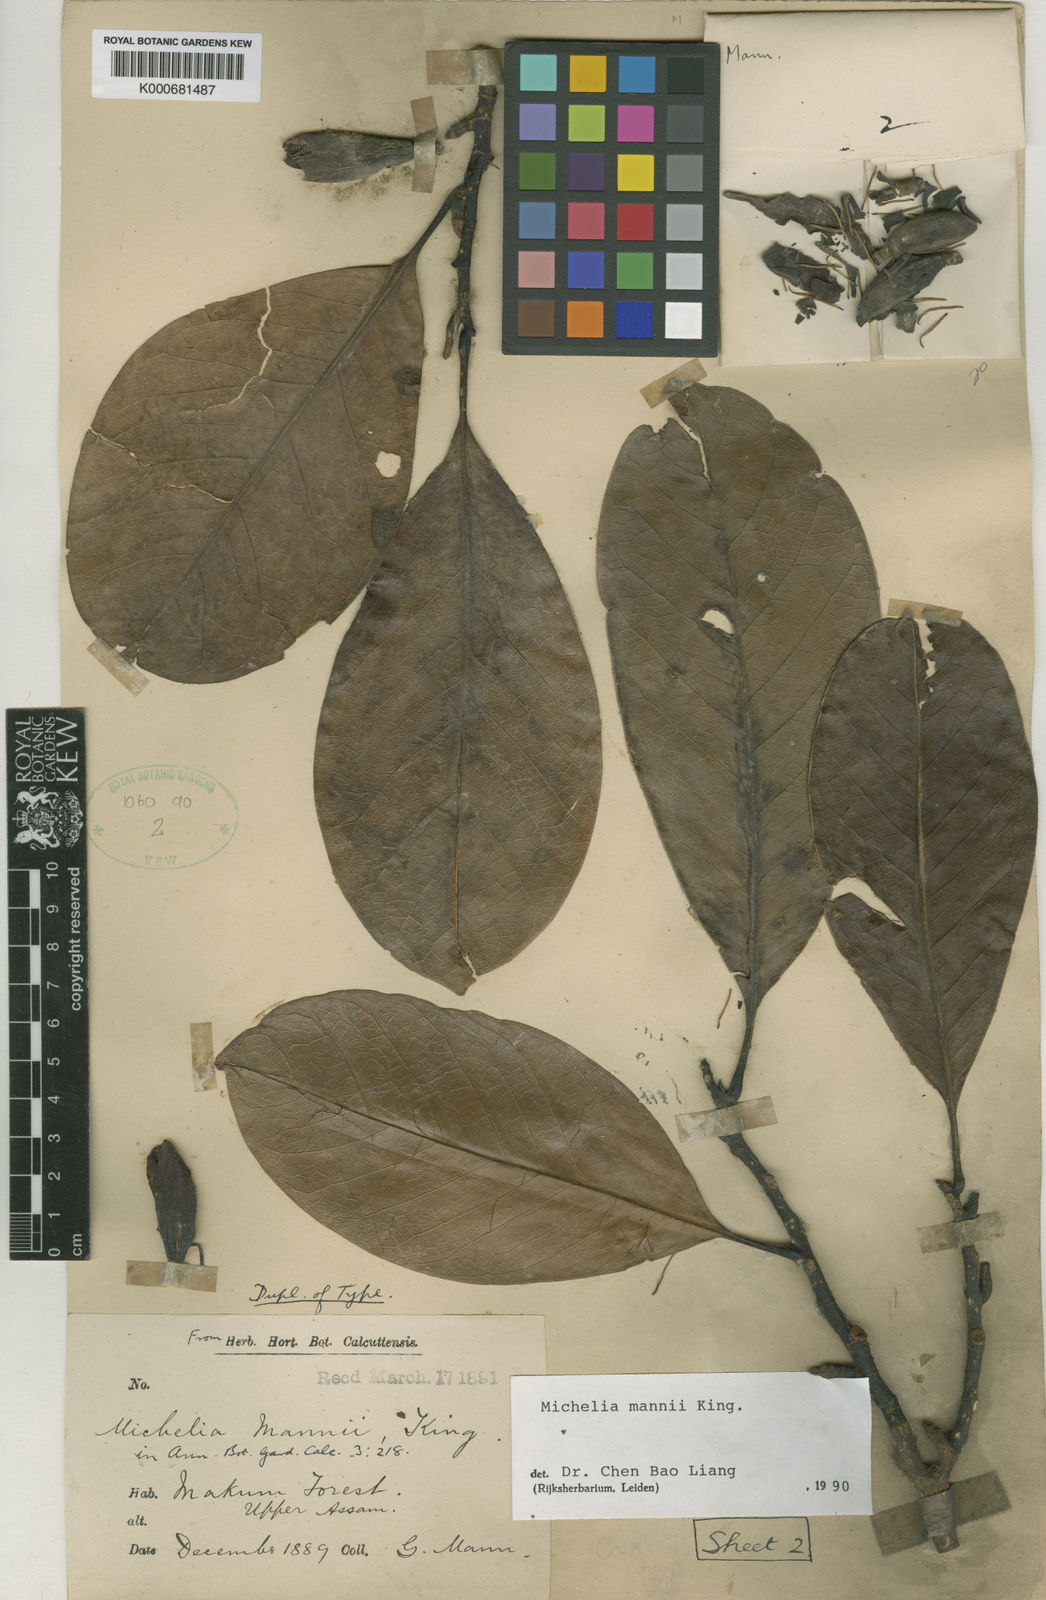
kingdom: Plantae
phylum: Tracheophyta
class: Magnoliopsida
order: Magnoliales
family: Magnoliaceae
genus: Magnolia
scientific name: Magnolia mannii
